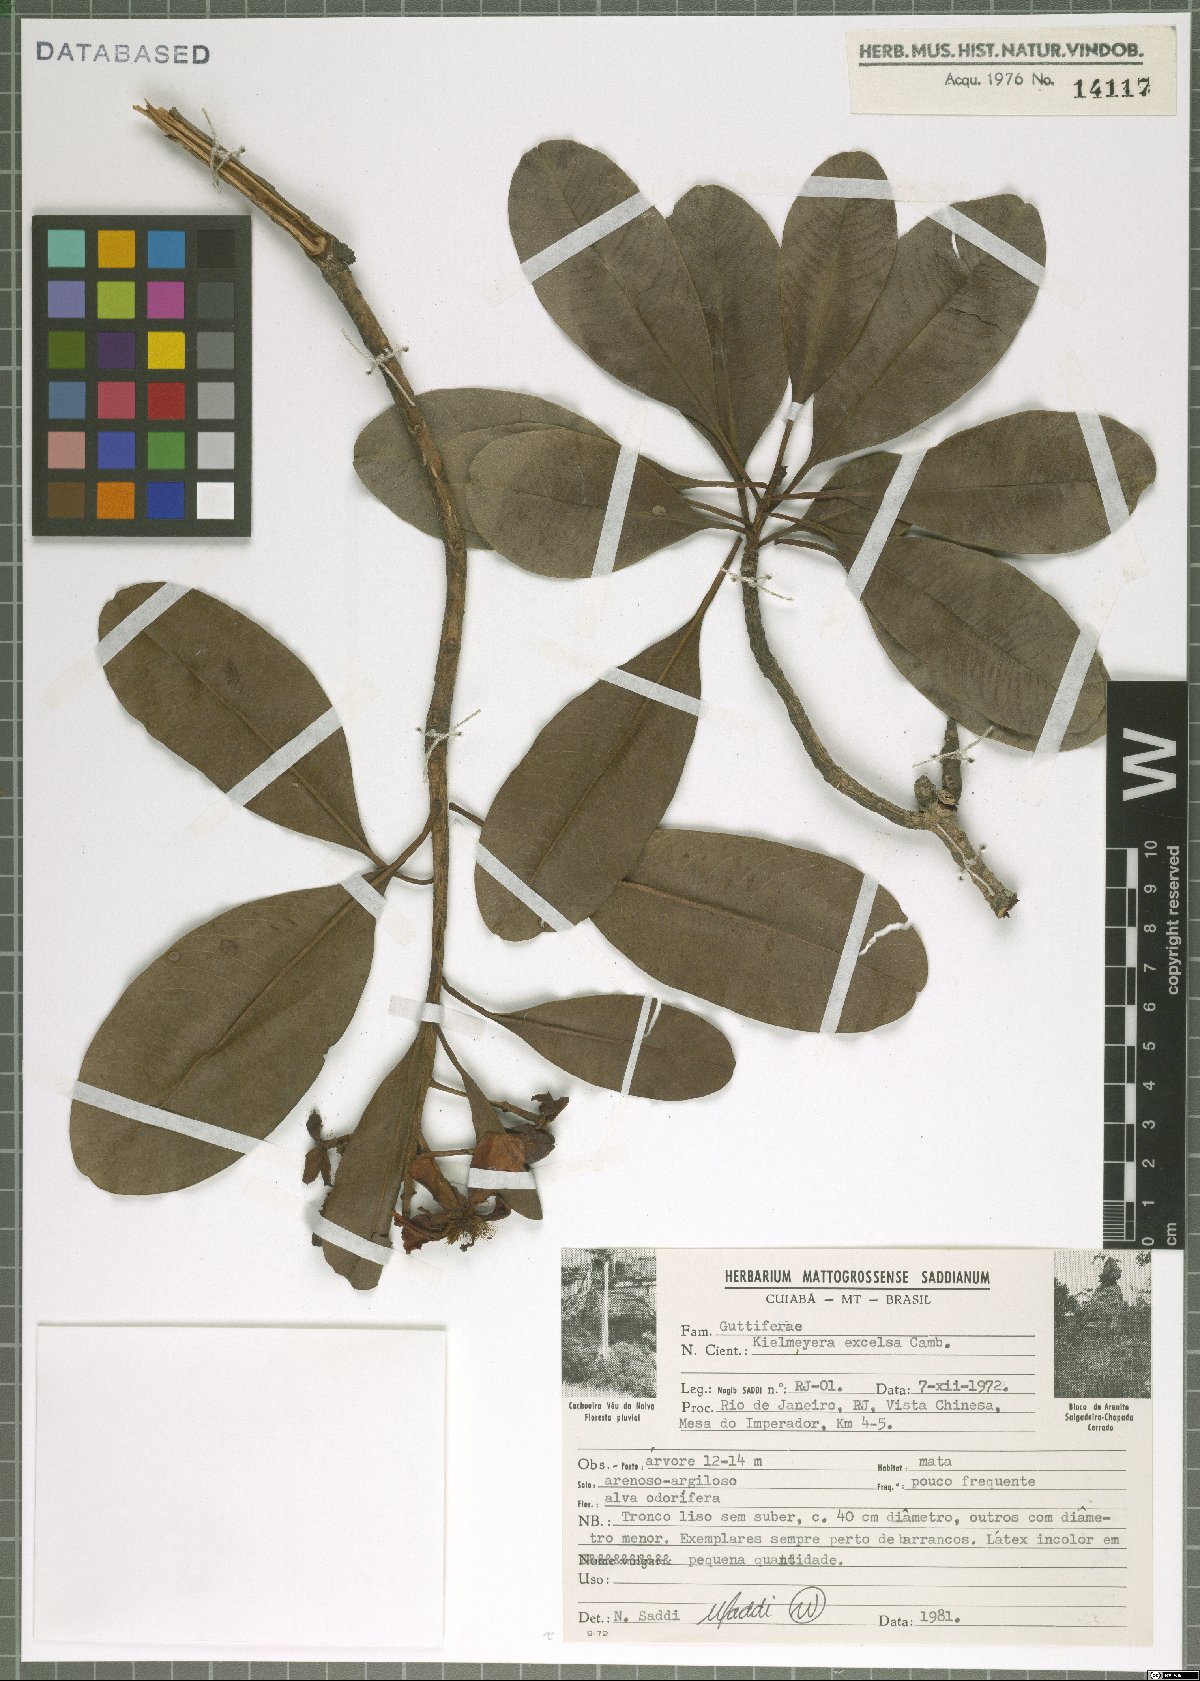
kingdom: Plantae
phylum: Tracheophyta
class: Magnoliopsida
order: Malpighiales
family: Calophyllaceae
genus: Kielmeyera
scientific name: Kielmeyera excelsa
